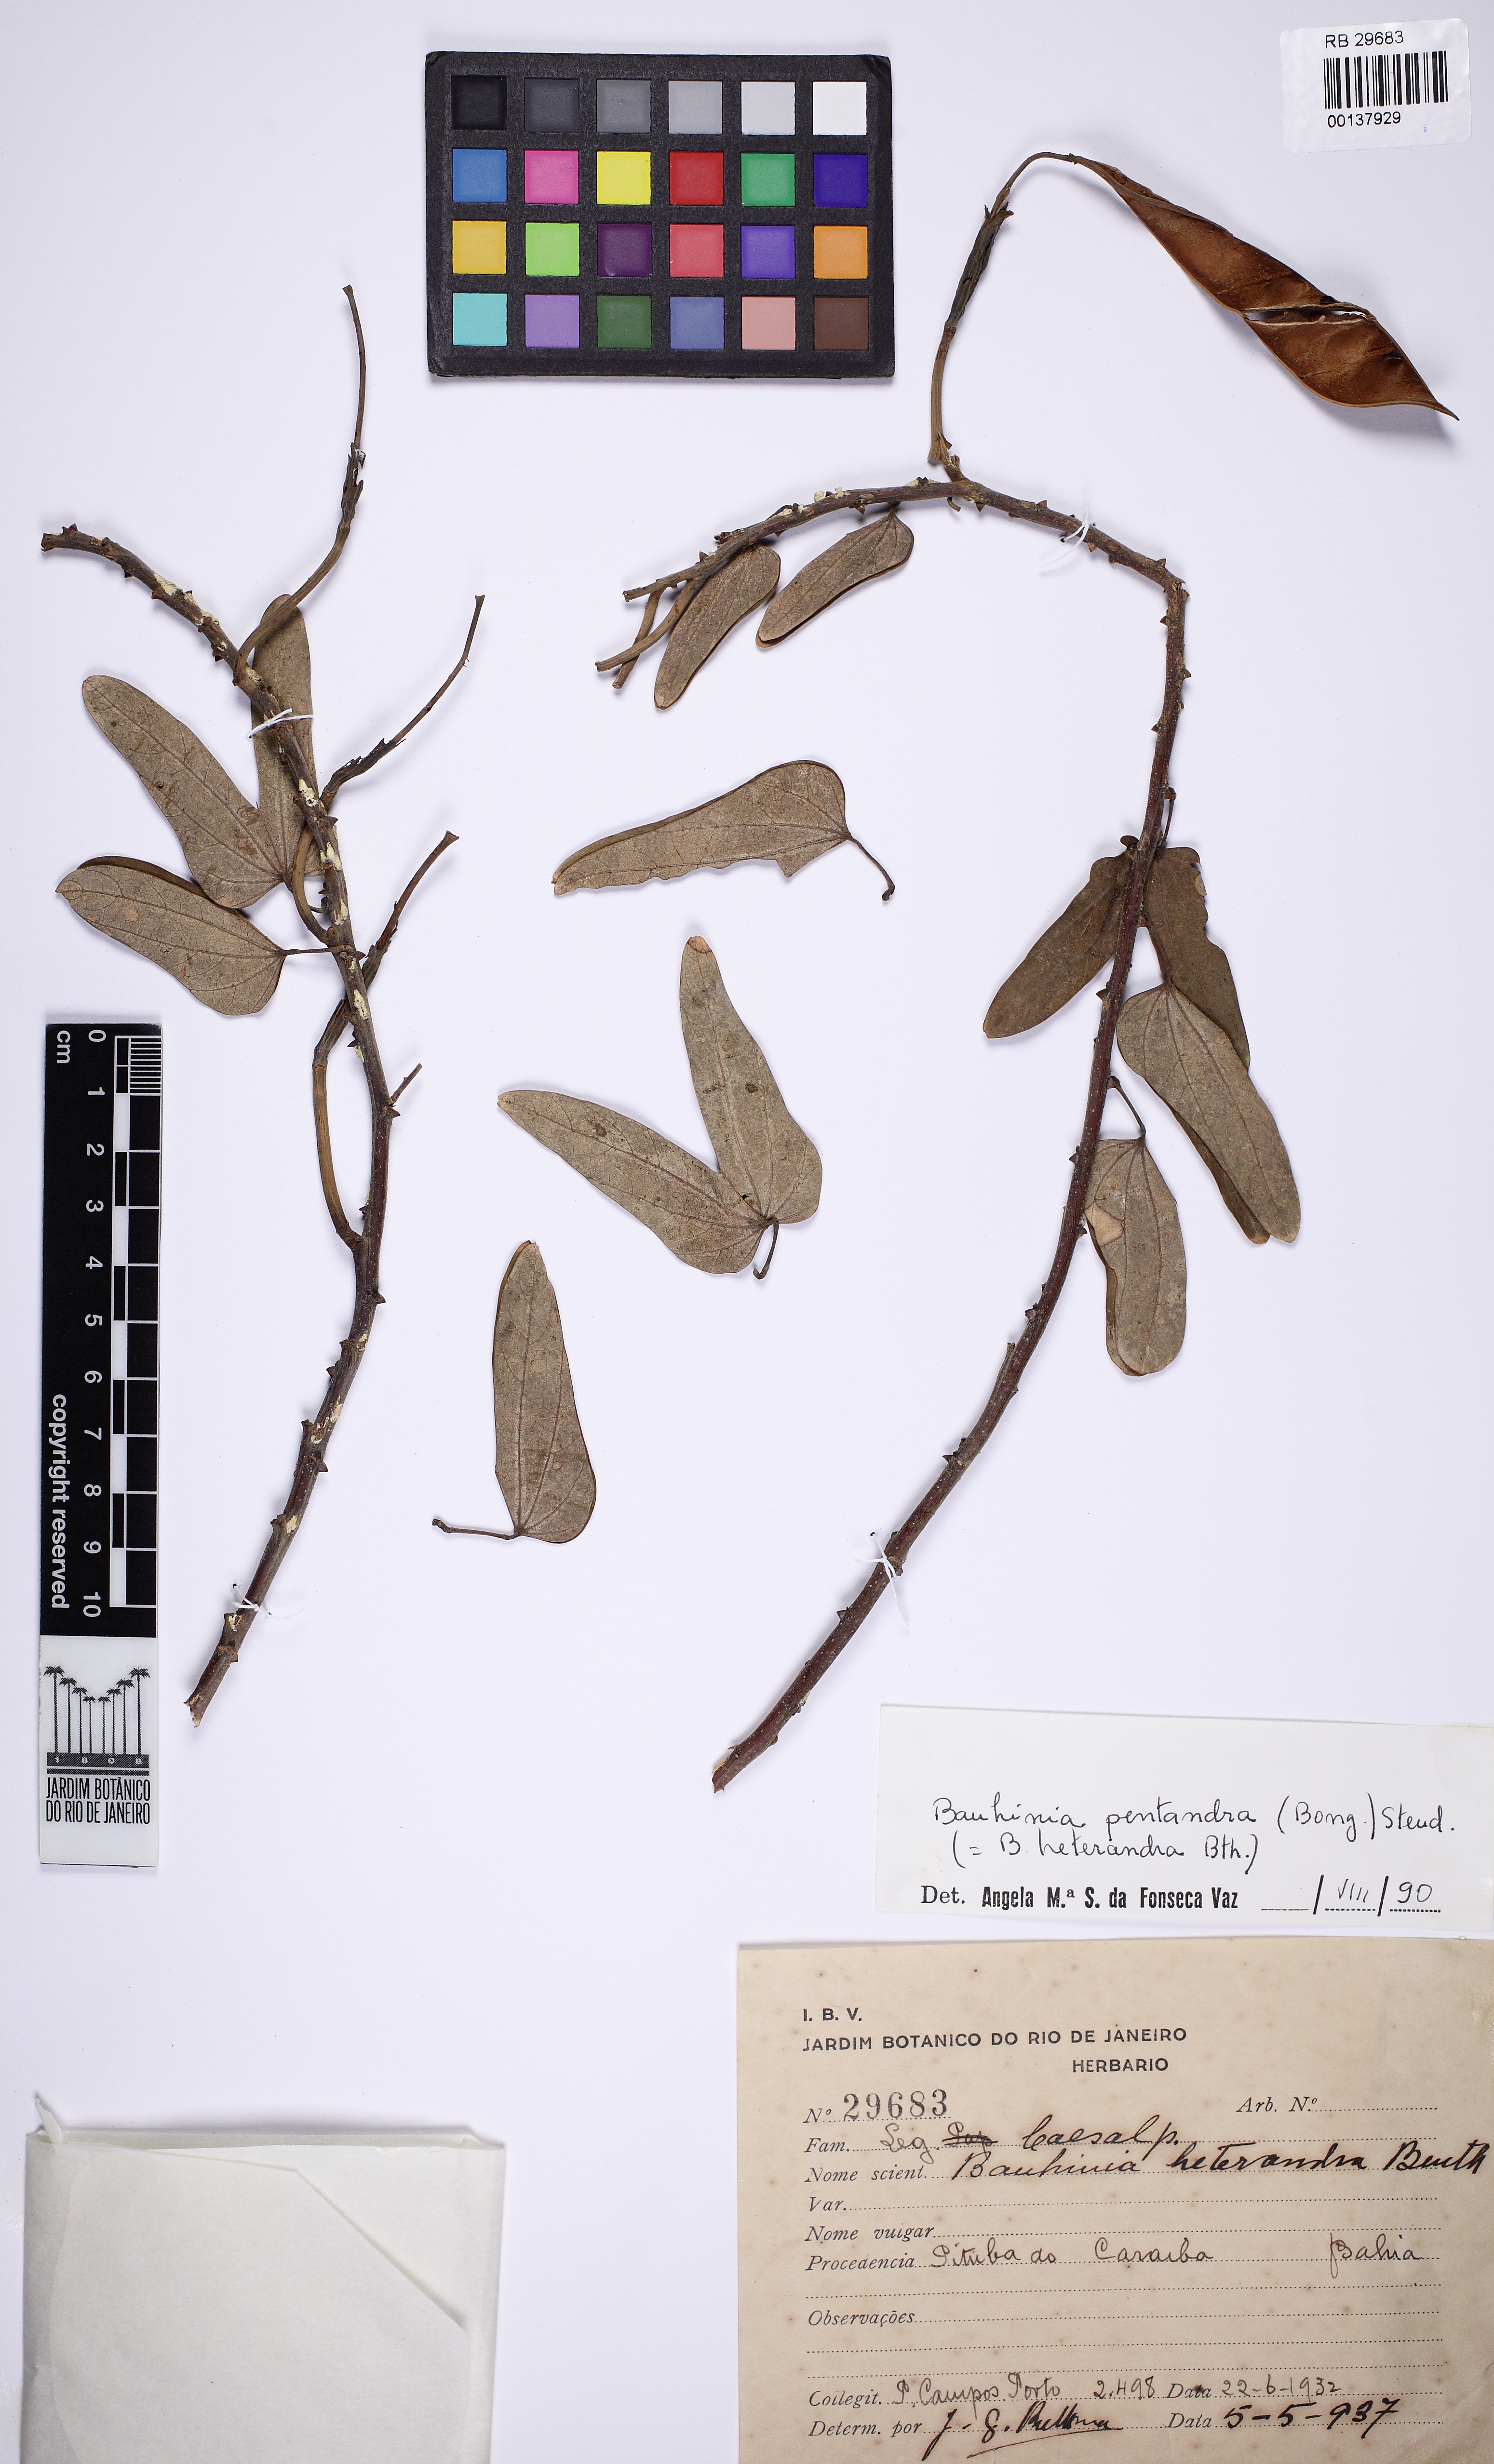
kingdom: Plantae
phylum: Tracheophyta
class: Magnoliopsida
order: Fabales
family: Fabaceae
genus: Bauhinia
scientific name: Bauhinia pentandra
